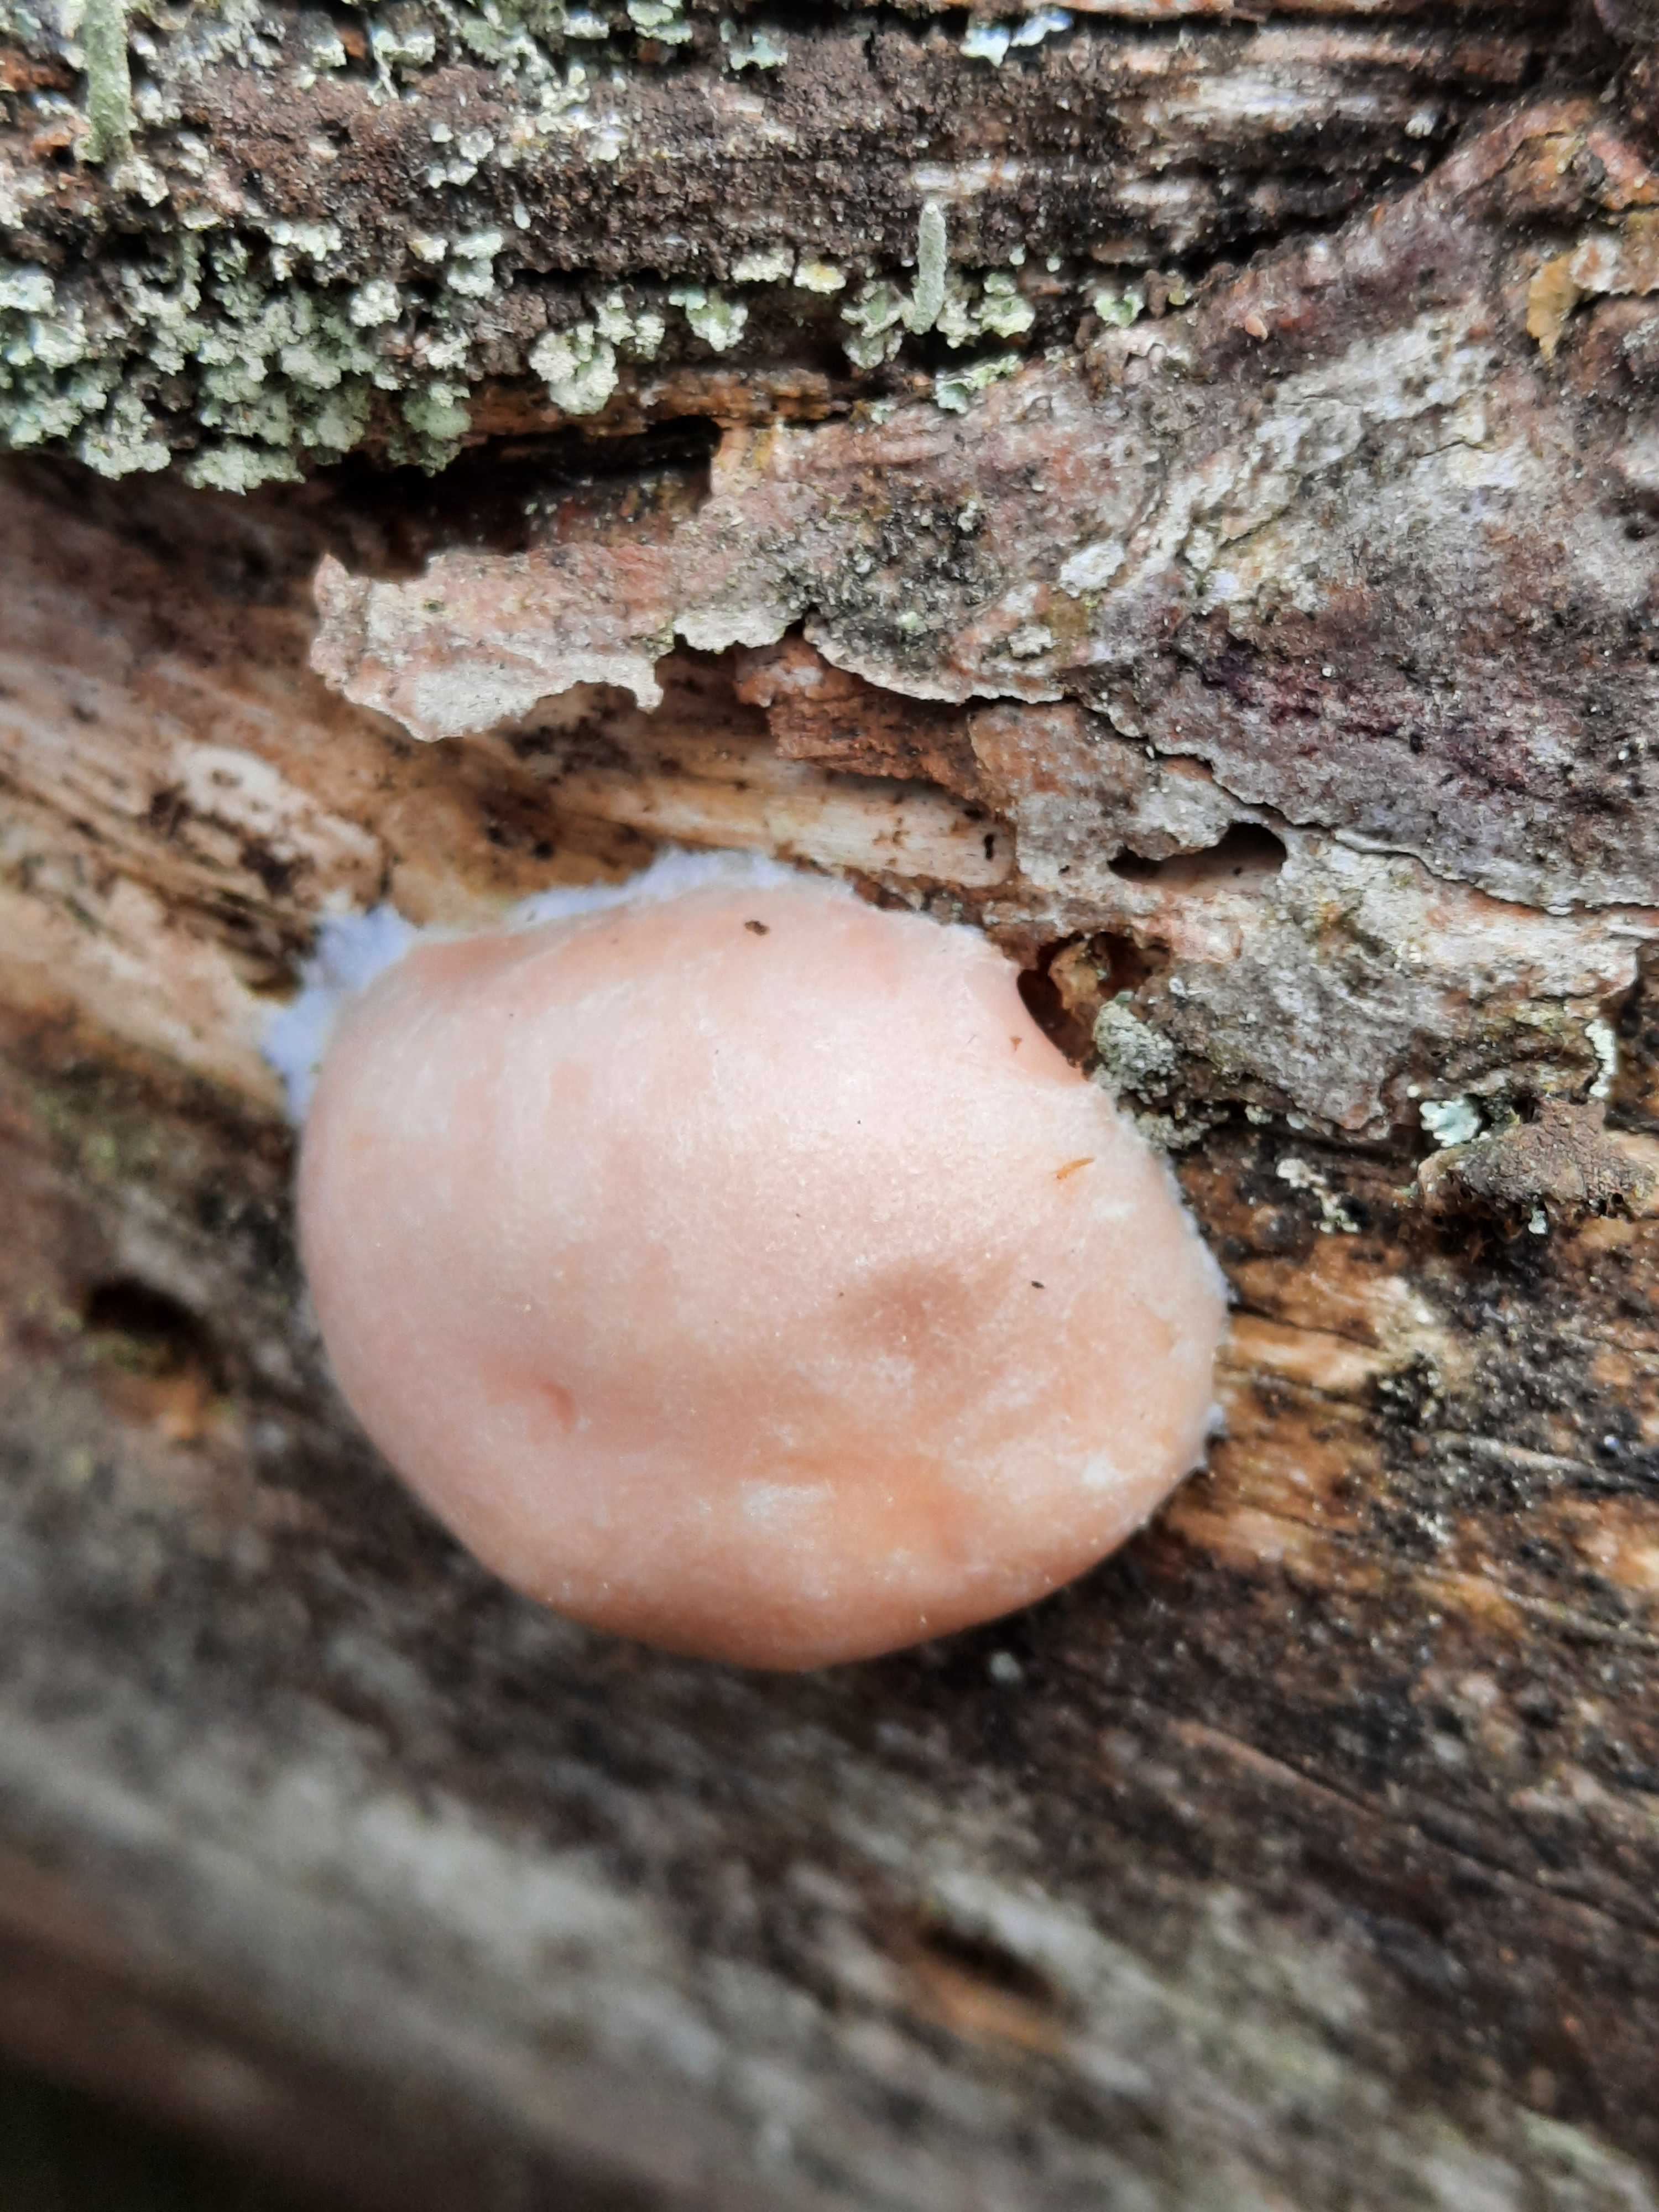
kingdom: Protozoa
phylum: Mycetozoa
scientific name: Mycetozoa
